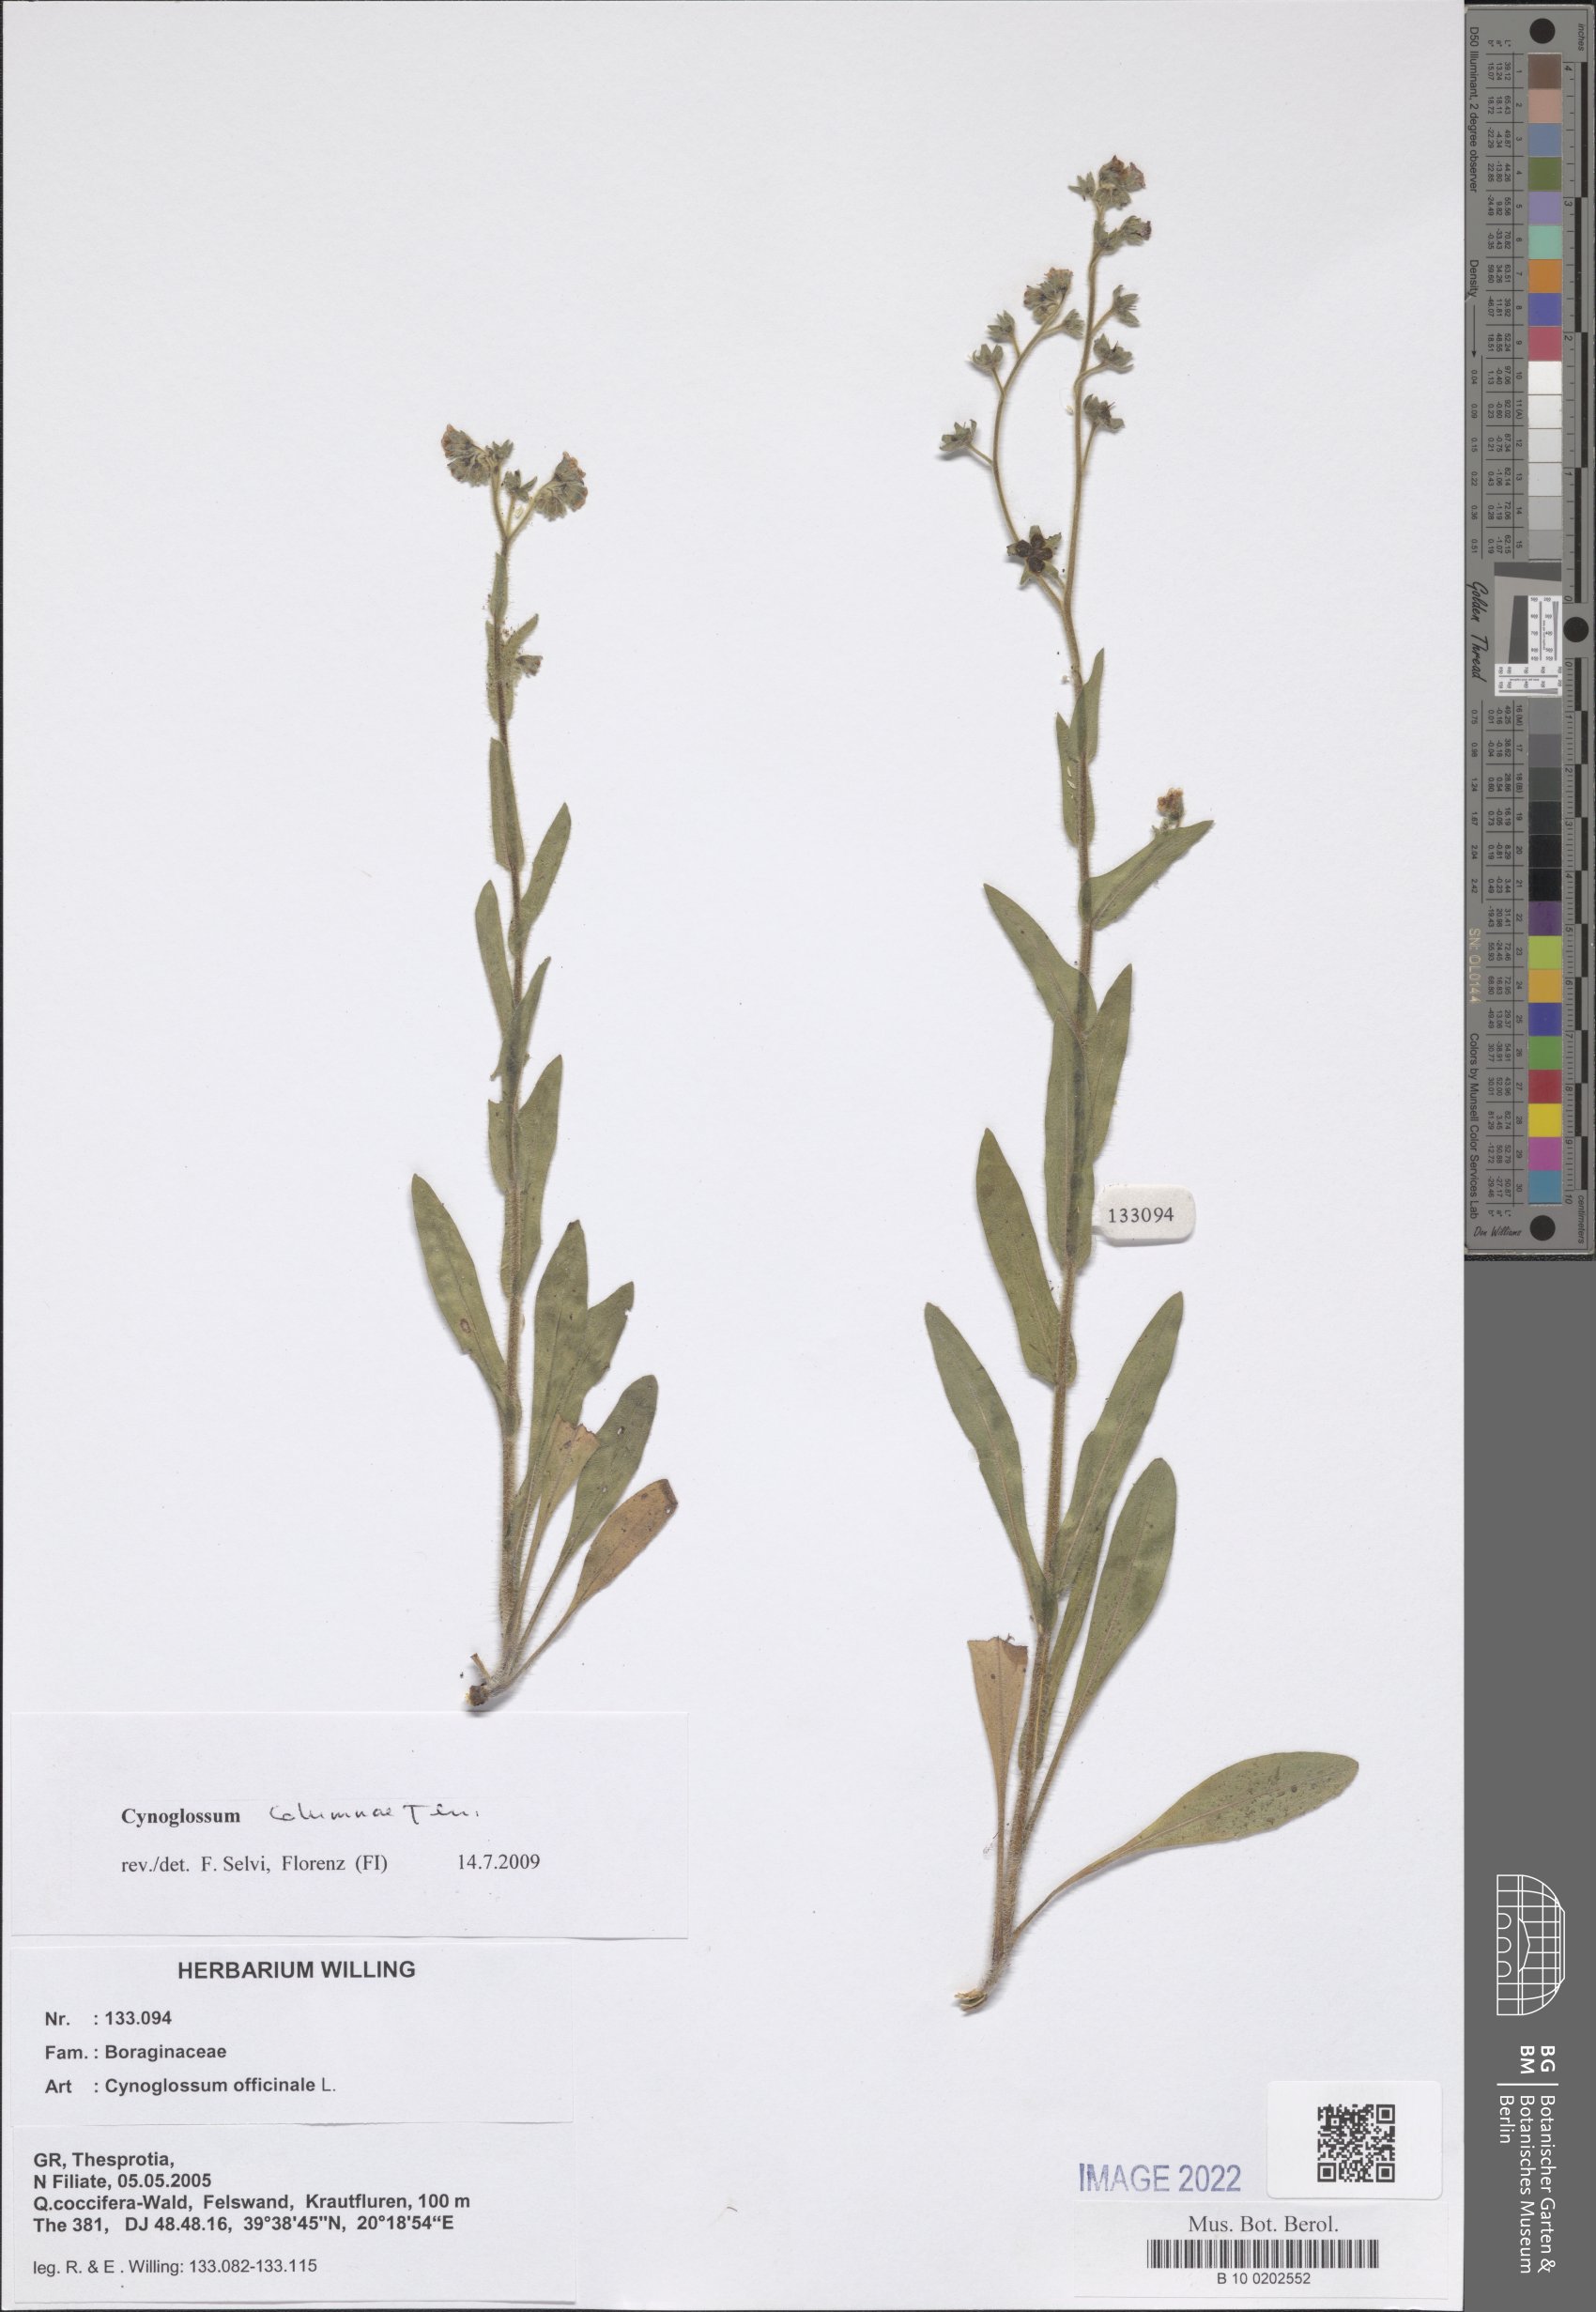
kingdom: Plantae
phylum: Tracheophyta
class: Magnoliopsida
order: Boraginales
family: Boraginaceae
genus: Rindera
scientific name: Rindera columnae
